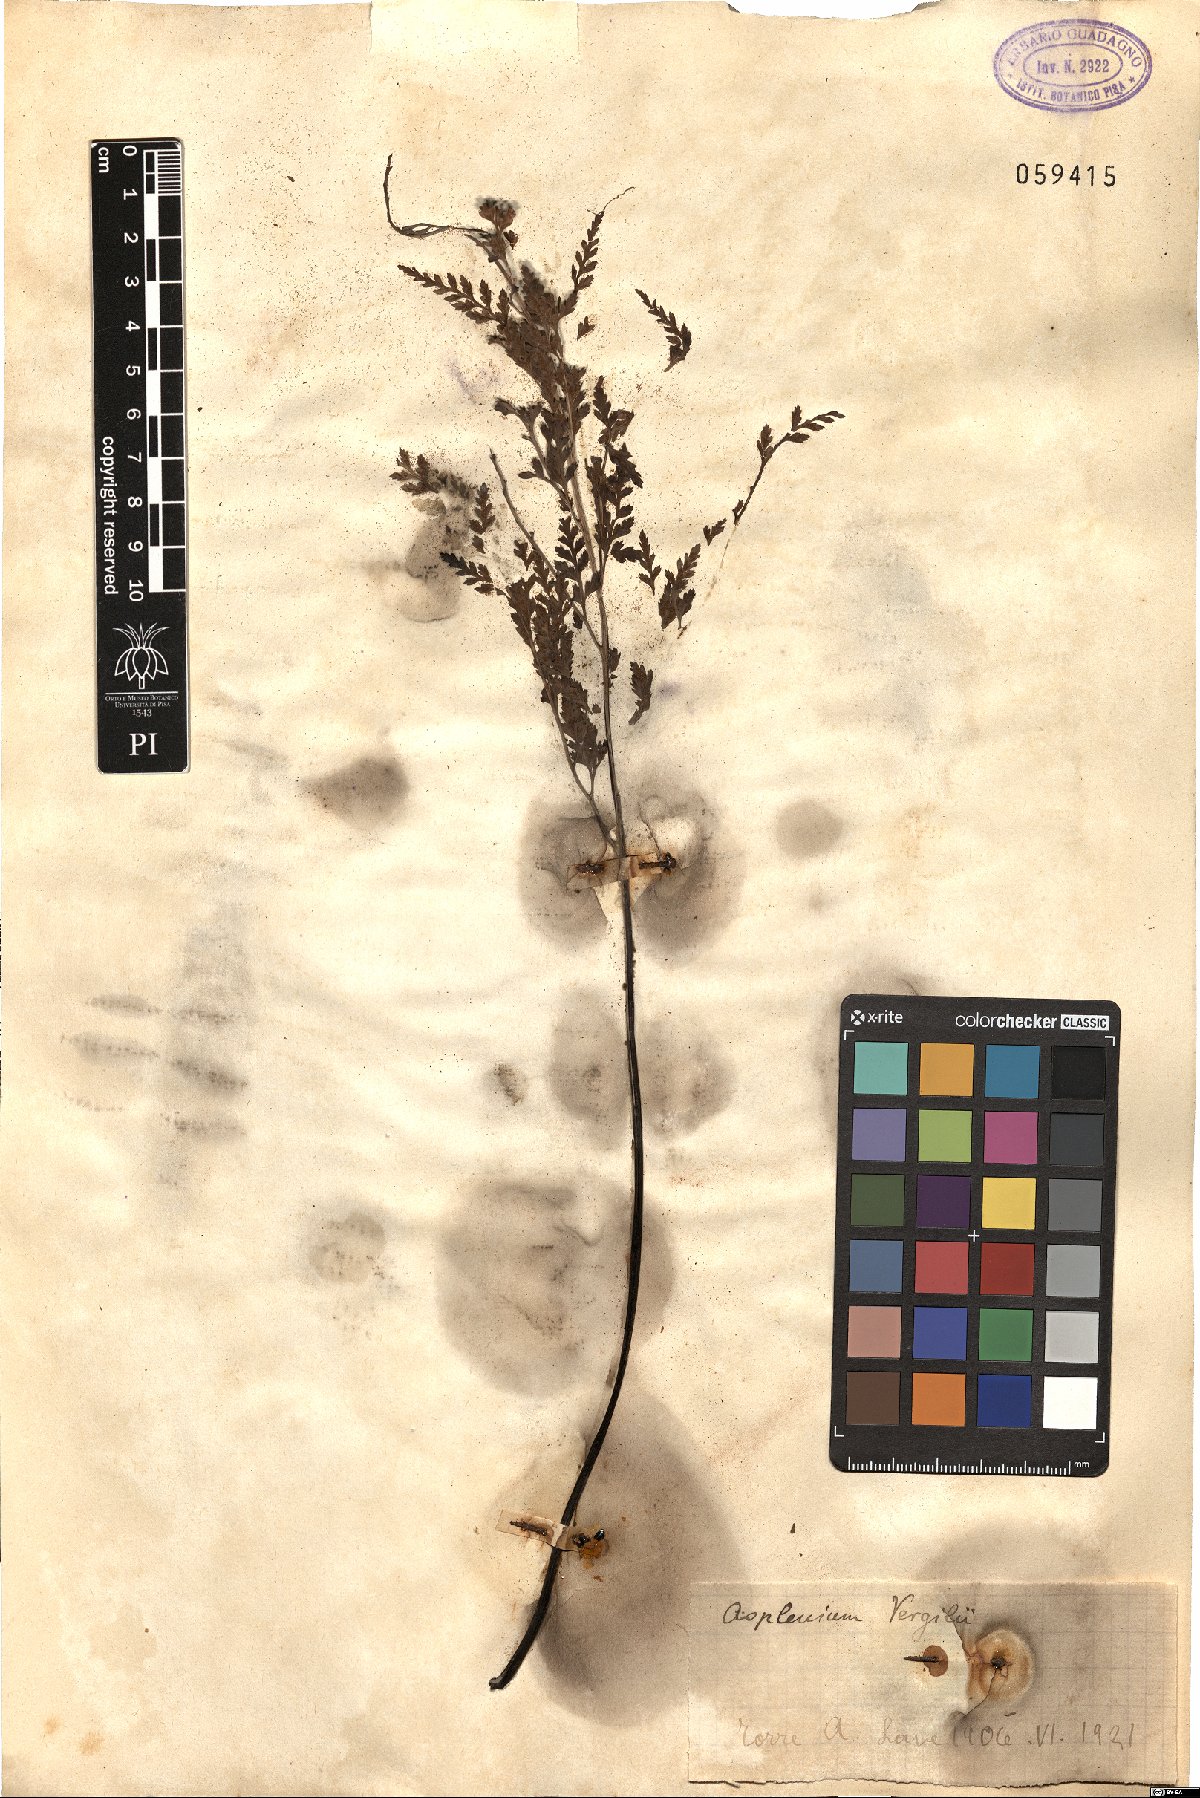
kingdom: Plantae
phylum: Tracheophyta
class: Polypodiopsida
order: Polypodiales
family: Aspleniaceae
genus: Asplenium
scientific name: Asplenium onopteris
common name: Irish spleenwort
